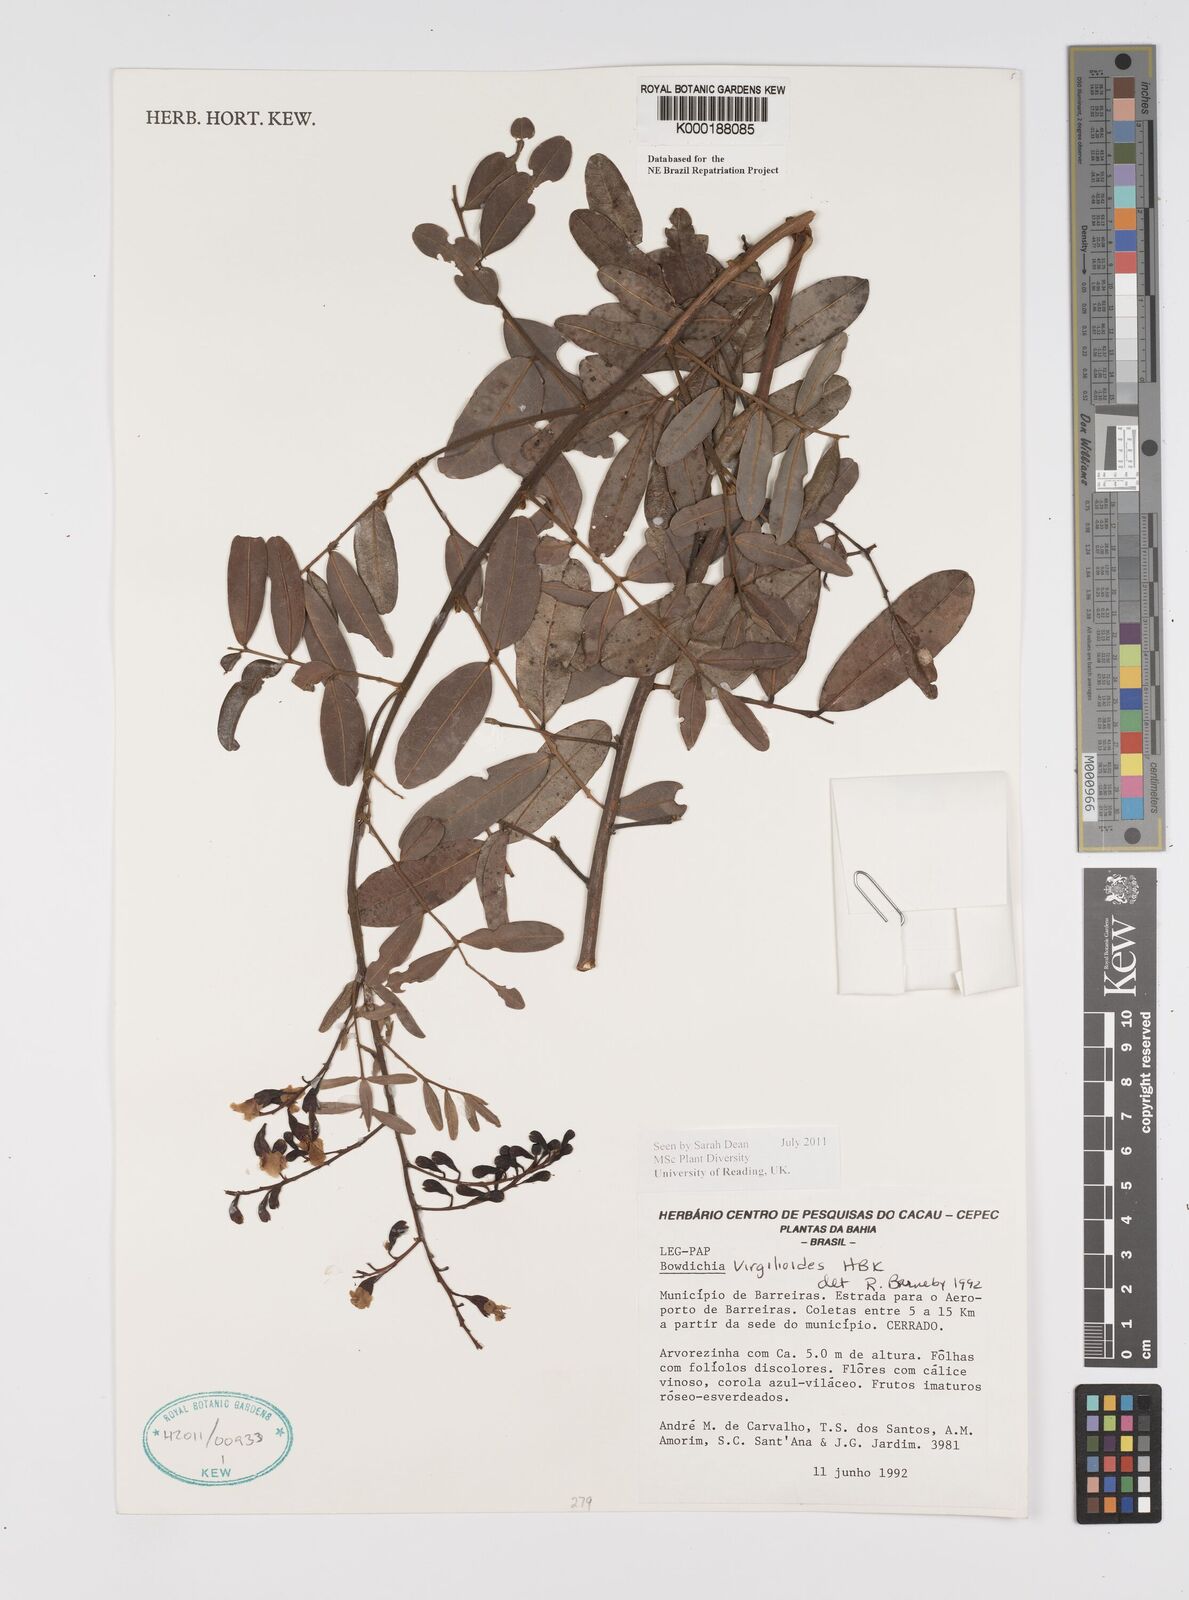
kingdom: Plantae
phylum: Tracheophyta
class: Magnoliopsida
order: Fabales
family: Fabaceae
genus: Bowdichia
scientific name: Bowdichia virgilioides
